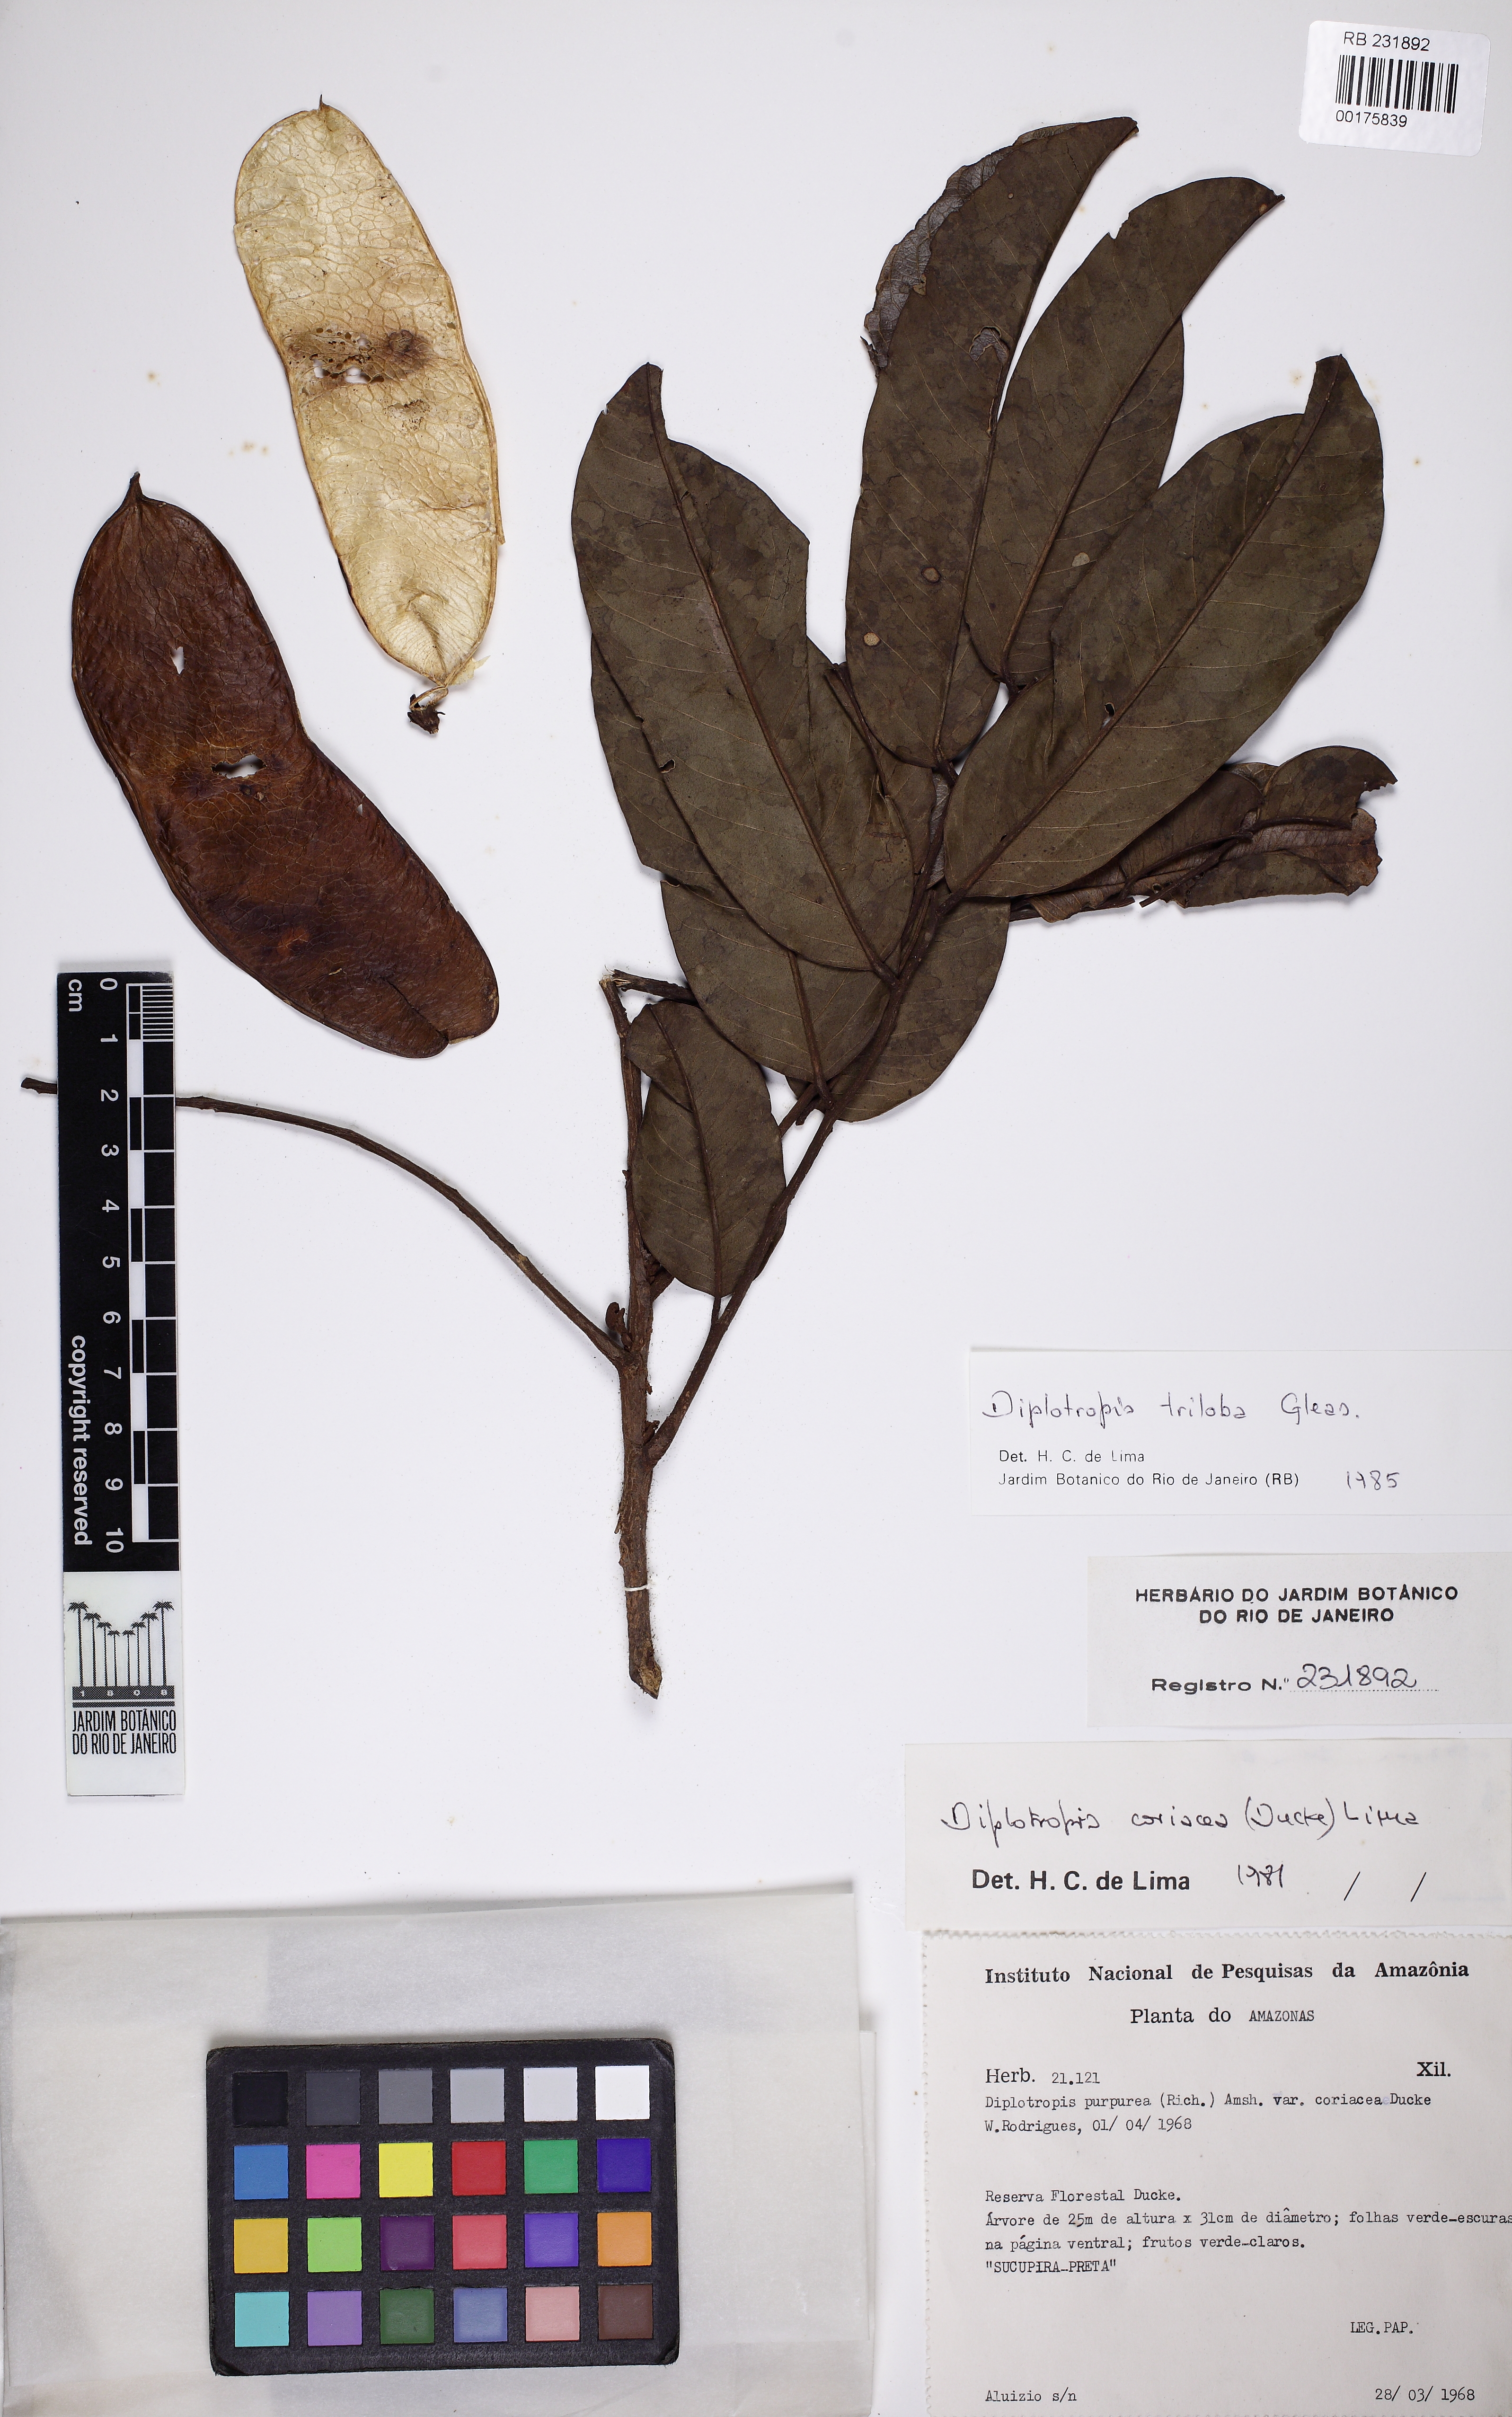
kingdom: Plantae
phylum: Tracheophyta
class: Magnoliopsida
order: Fabales
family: Fabaceae
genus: Diplotropis
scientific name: Diplotropis triloba
